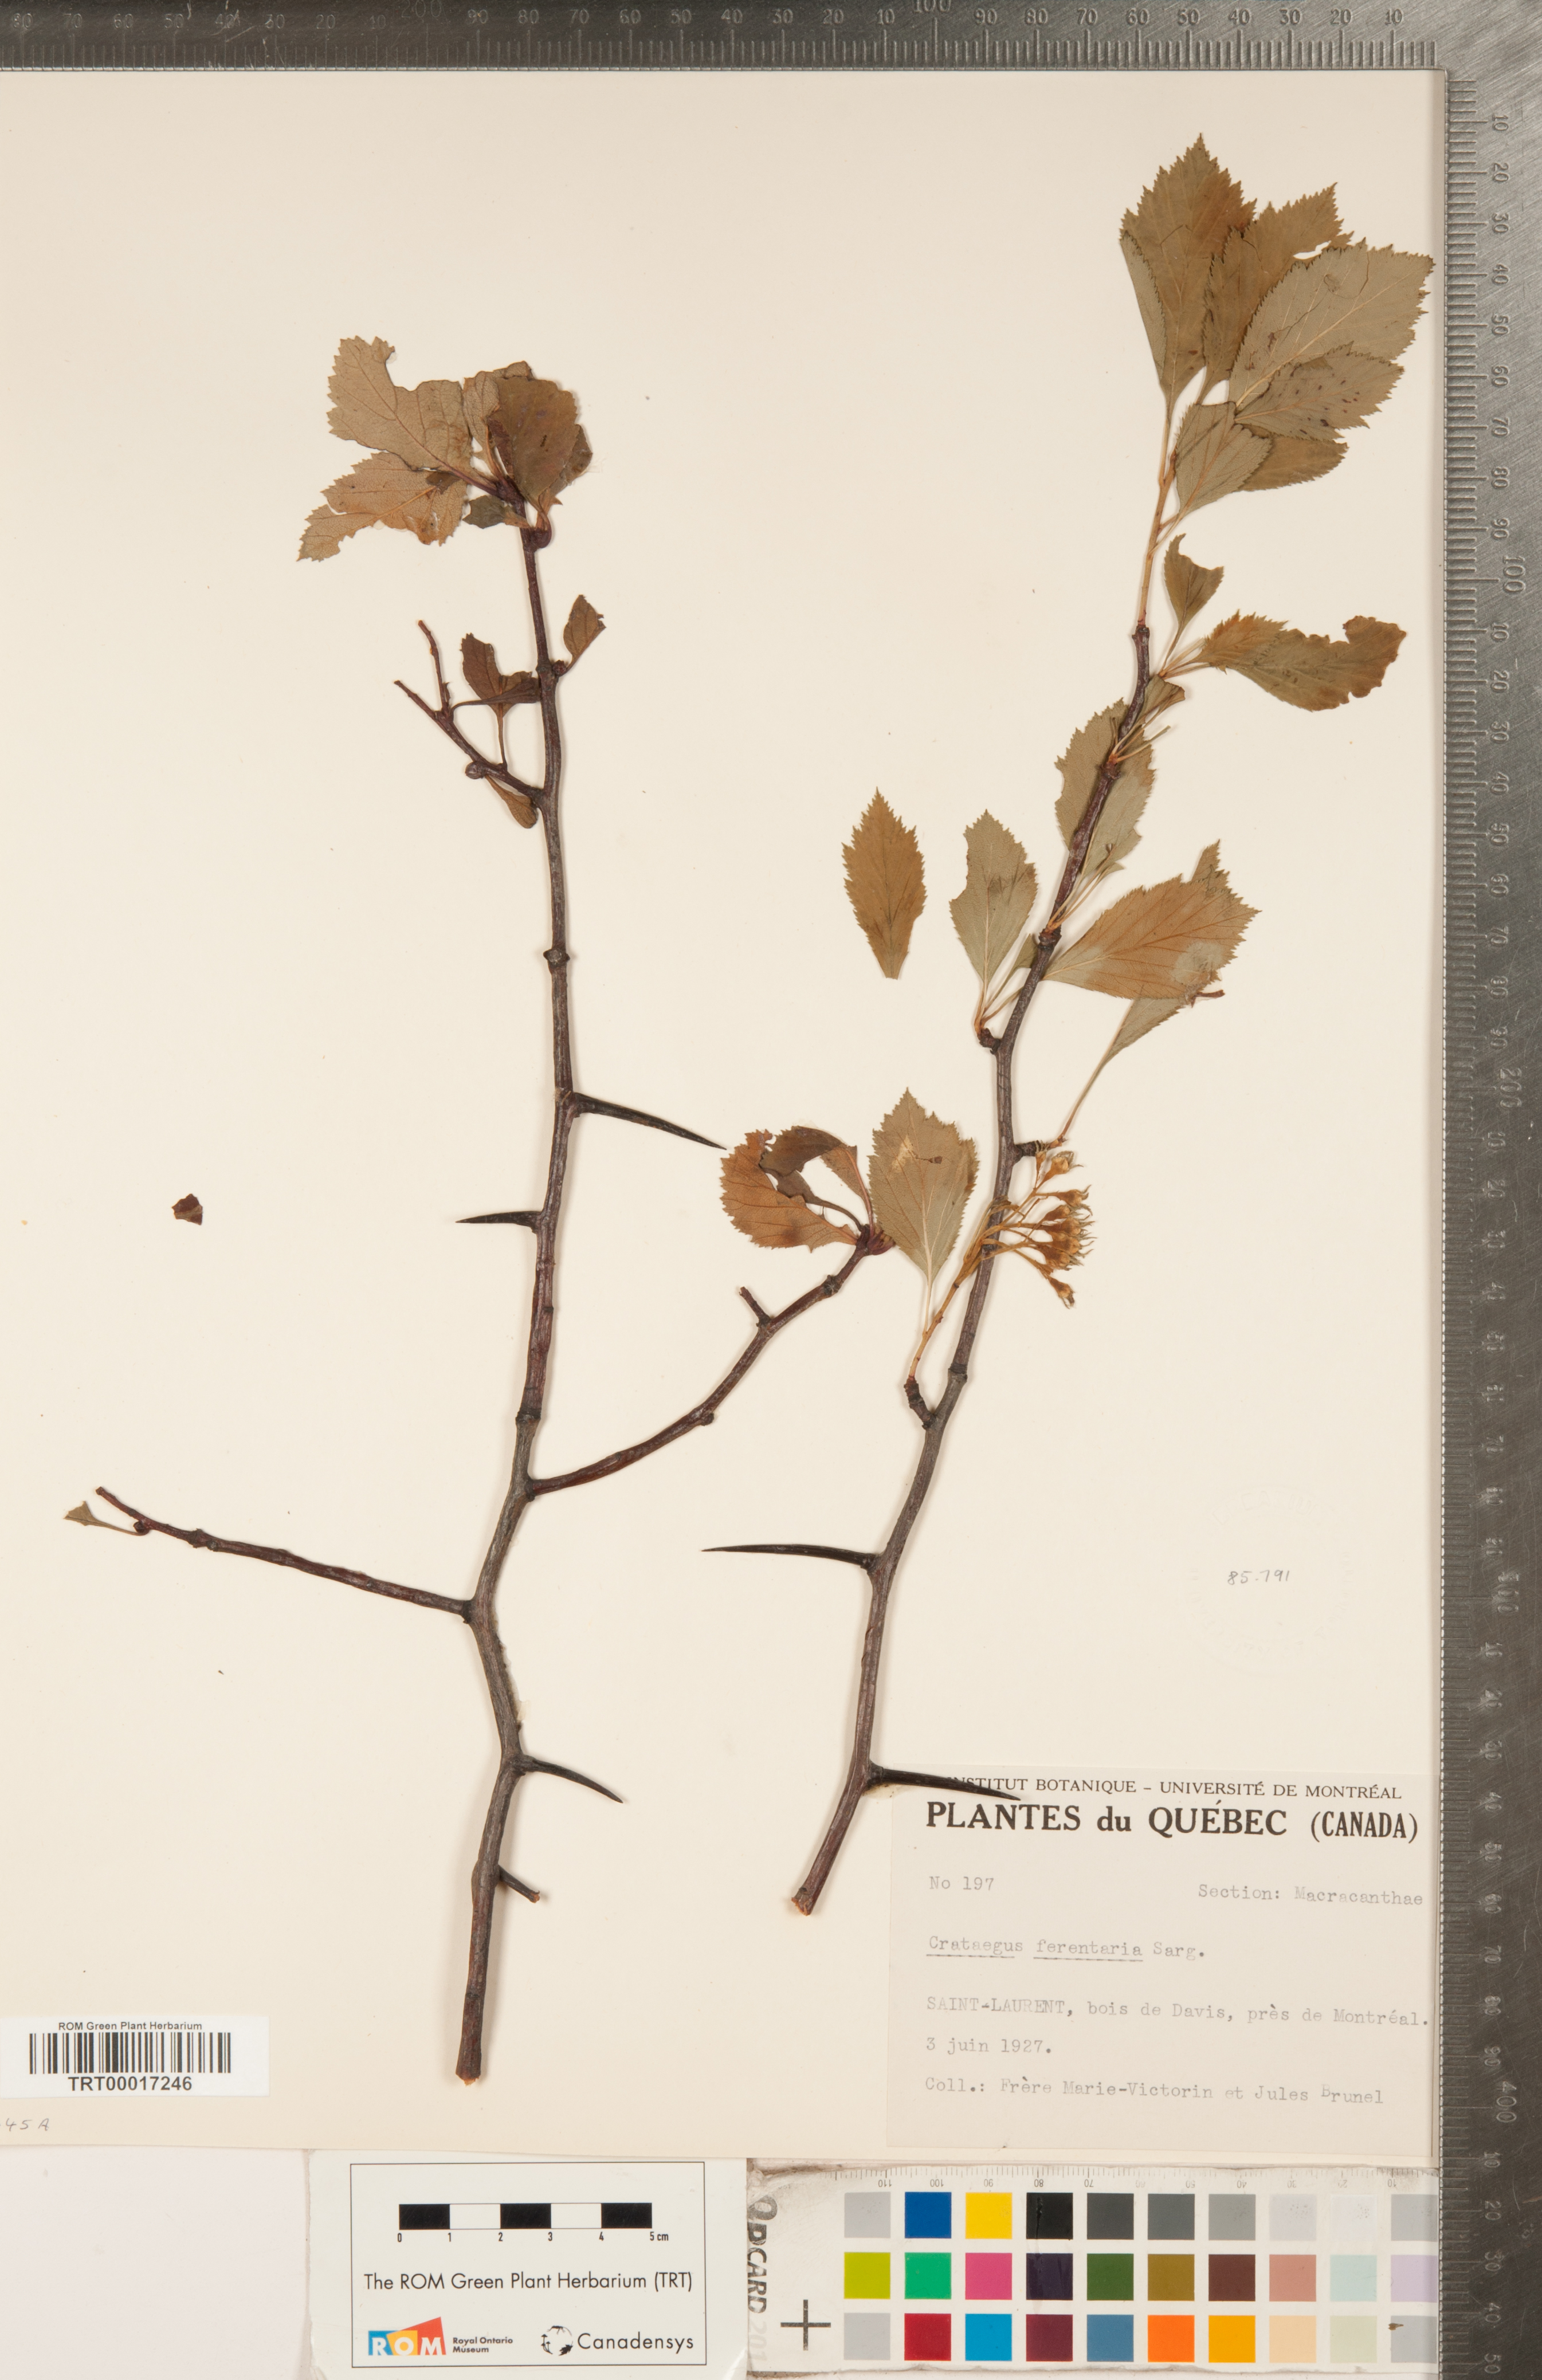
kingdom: Plantae
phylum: Tracheophyta
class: Magnoliopsida
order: Rosales
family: Rosaceae
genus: Crataegus
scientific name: Crataegus macracantha
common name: Large-thorn hawthorn
